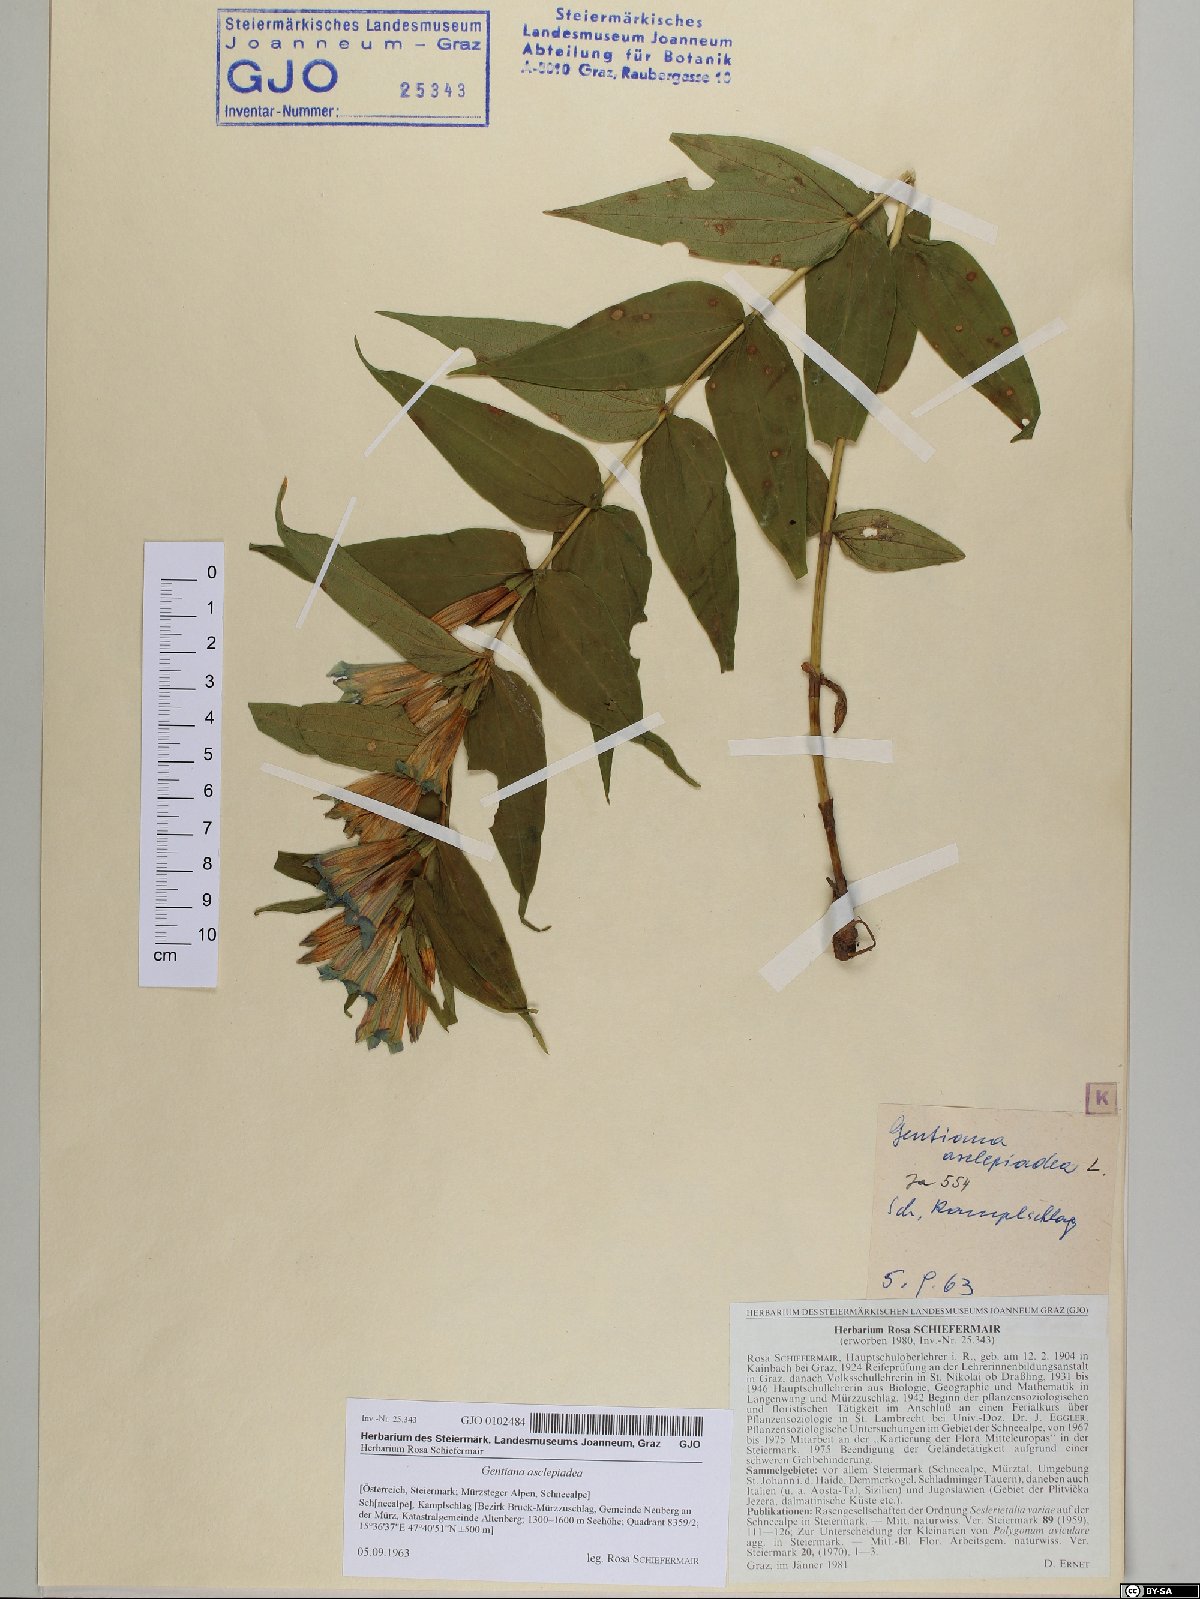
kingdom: Plantae
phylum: Tracheophyta
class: Magnoliopsida
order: Gentianales
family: Gentianaceae
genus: Gentiana
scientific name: Gentiana asclepiadea
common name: Willow gentian
